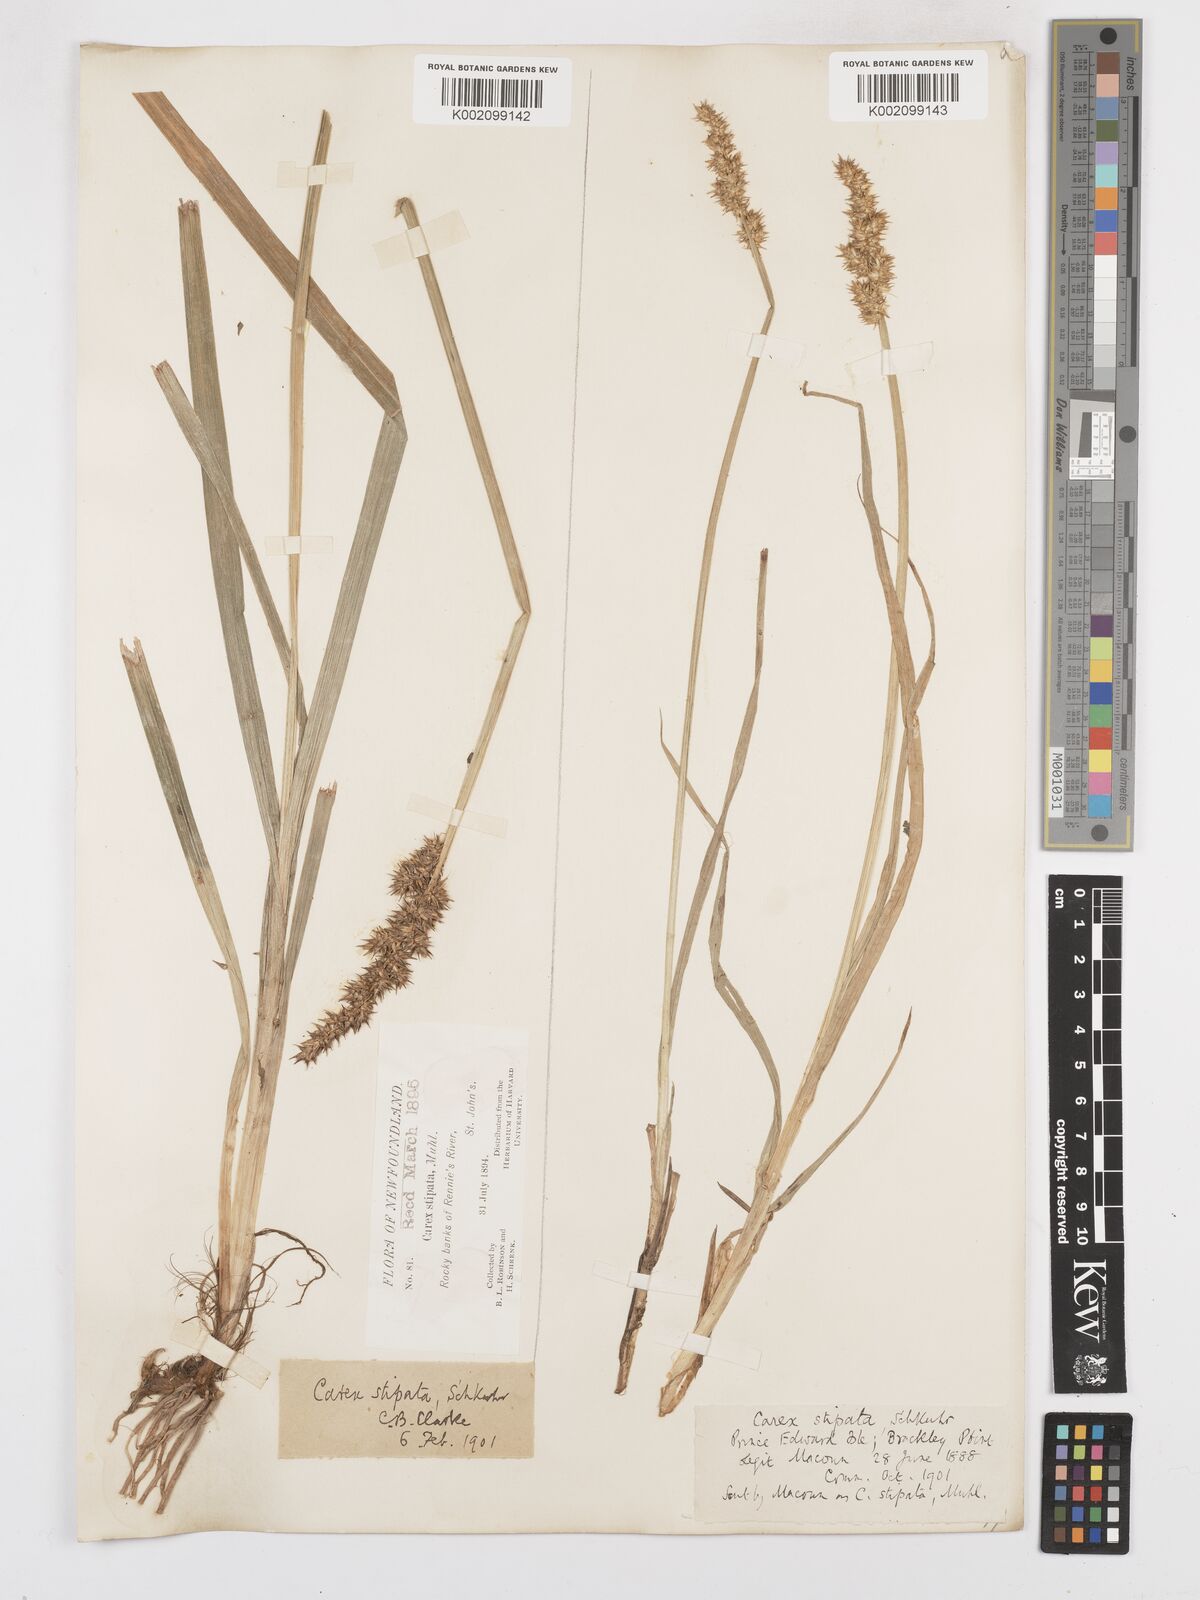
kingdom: Plantae
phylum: Tracheophyta
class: Liliopsida
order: Poales
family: Cyperaceae
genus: Carex
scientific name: Carex stipata
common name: Awl-fruited sedge
